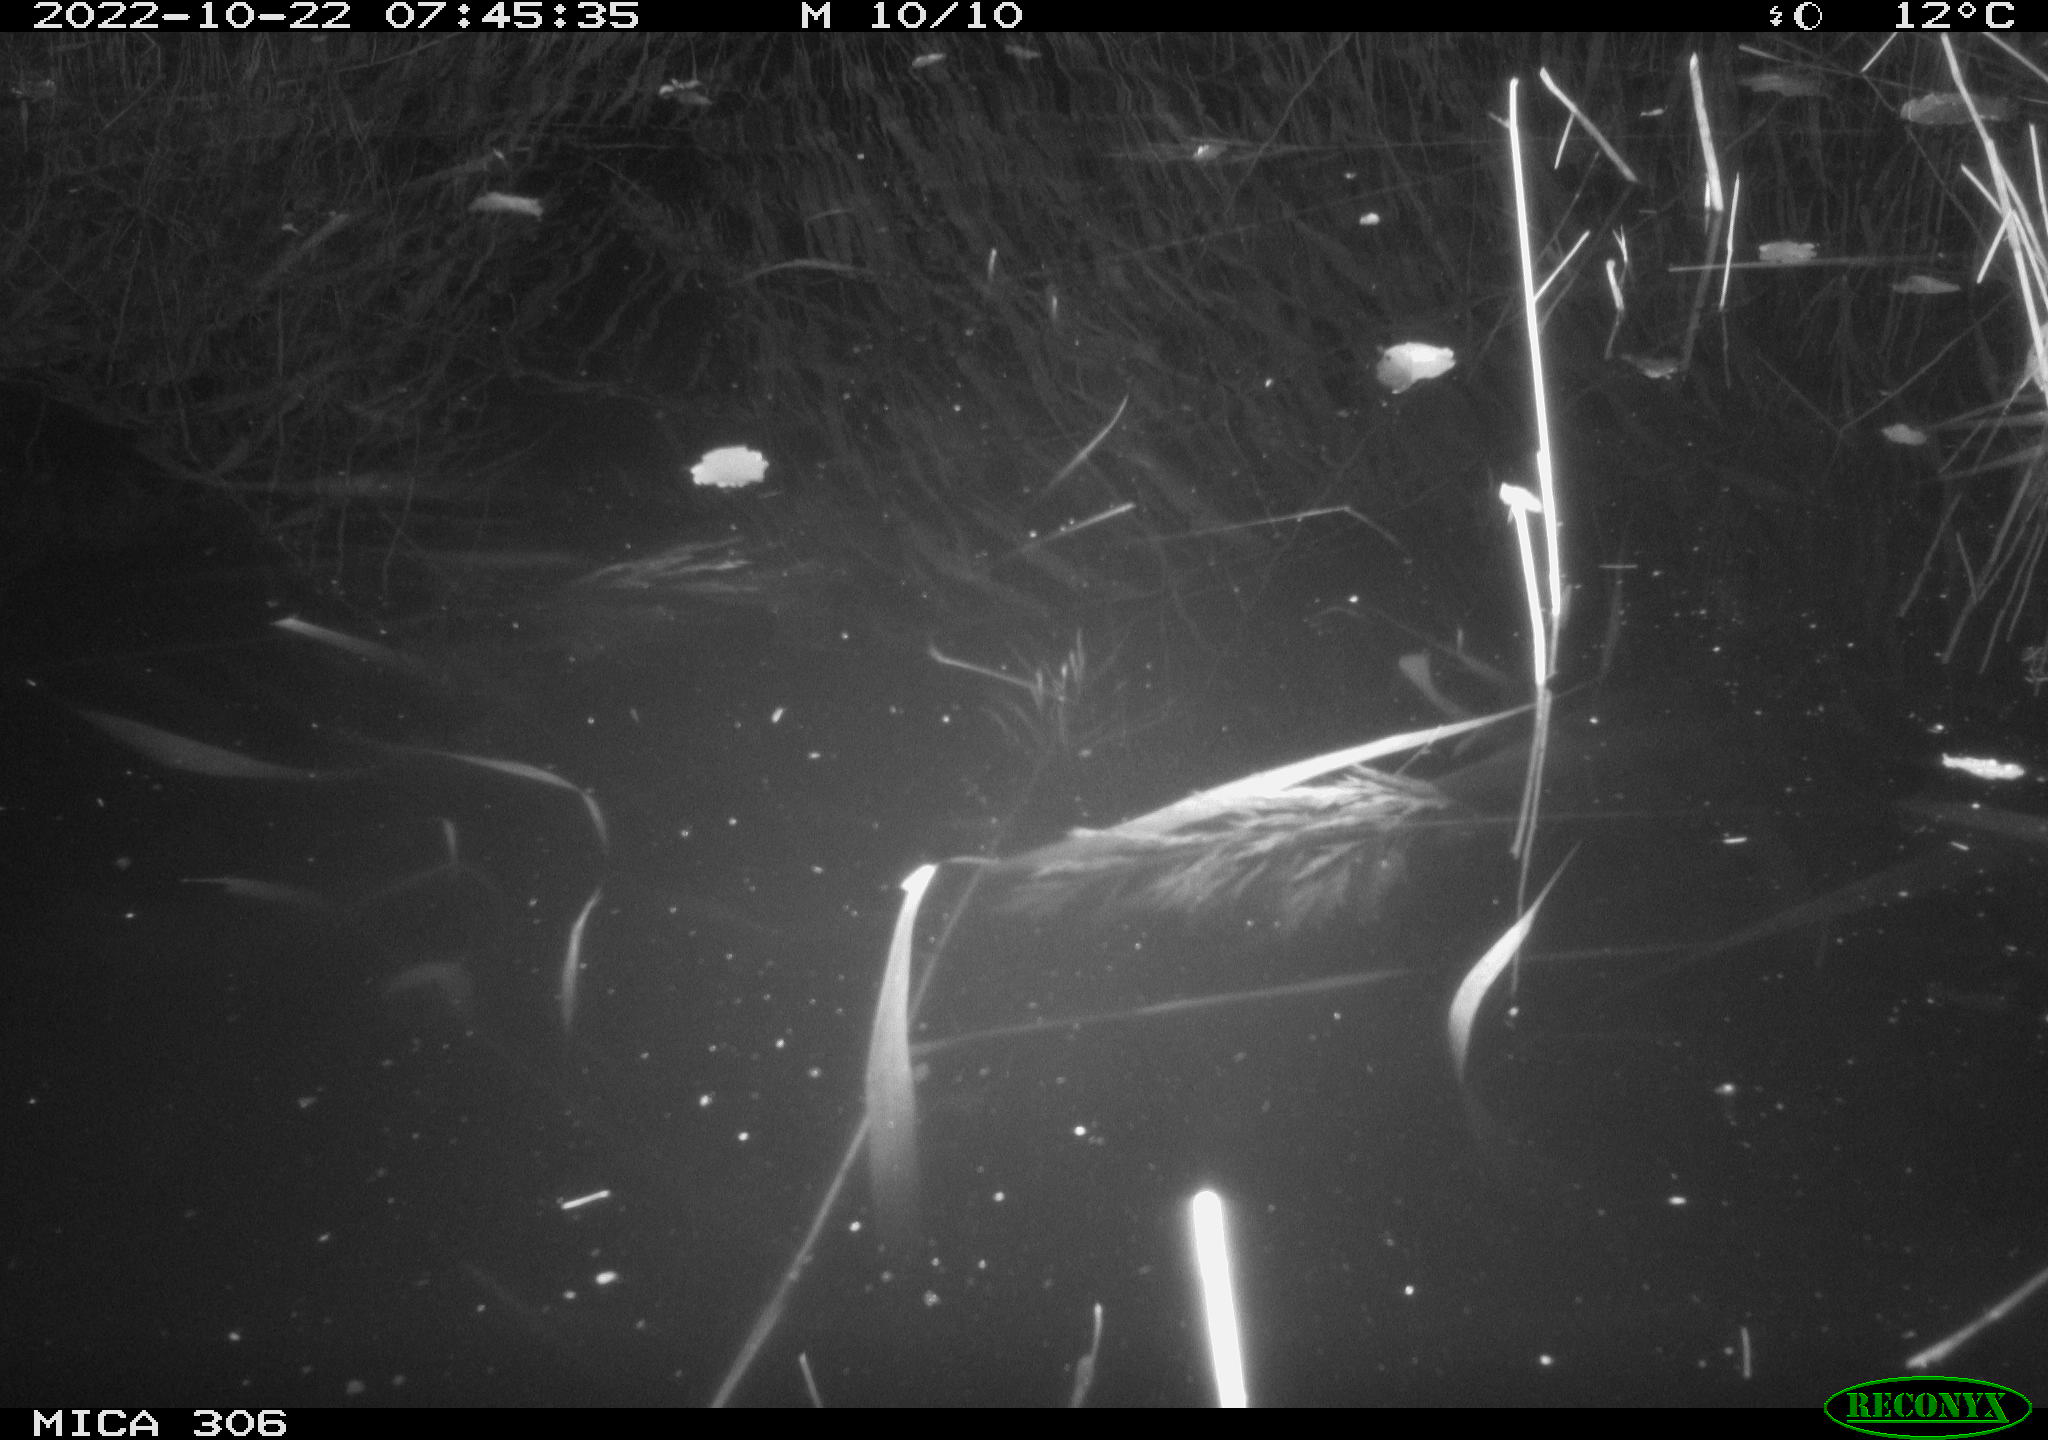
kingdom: Animalia
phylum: Chordata
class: Mammalia
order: Rodentia
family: Muridae
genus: Rattus
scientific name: Rattus norvegicus
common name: Brown rat
